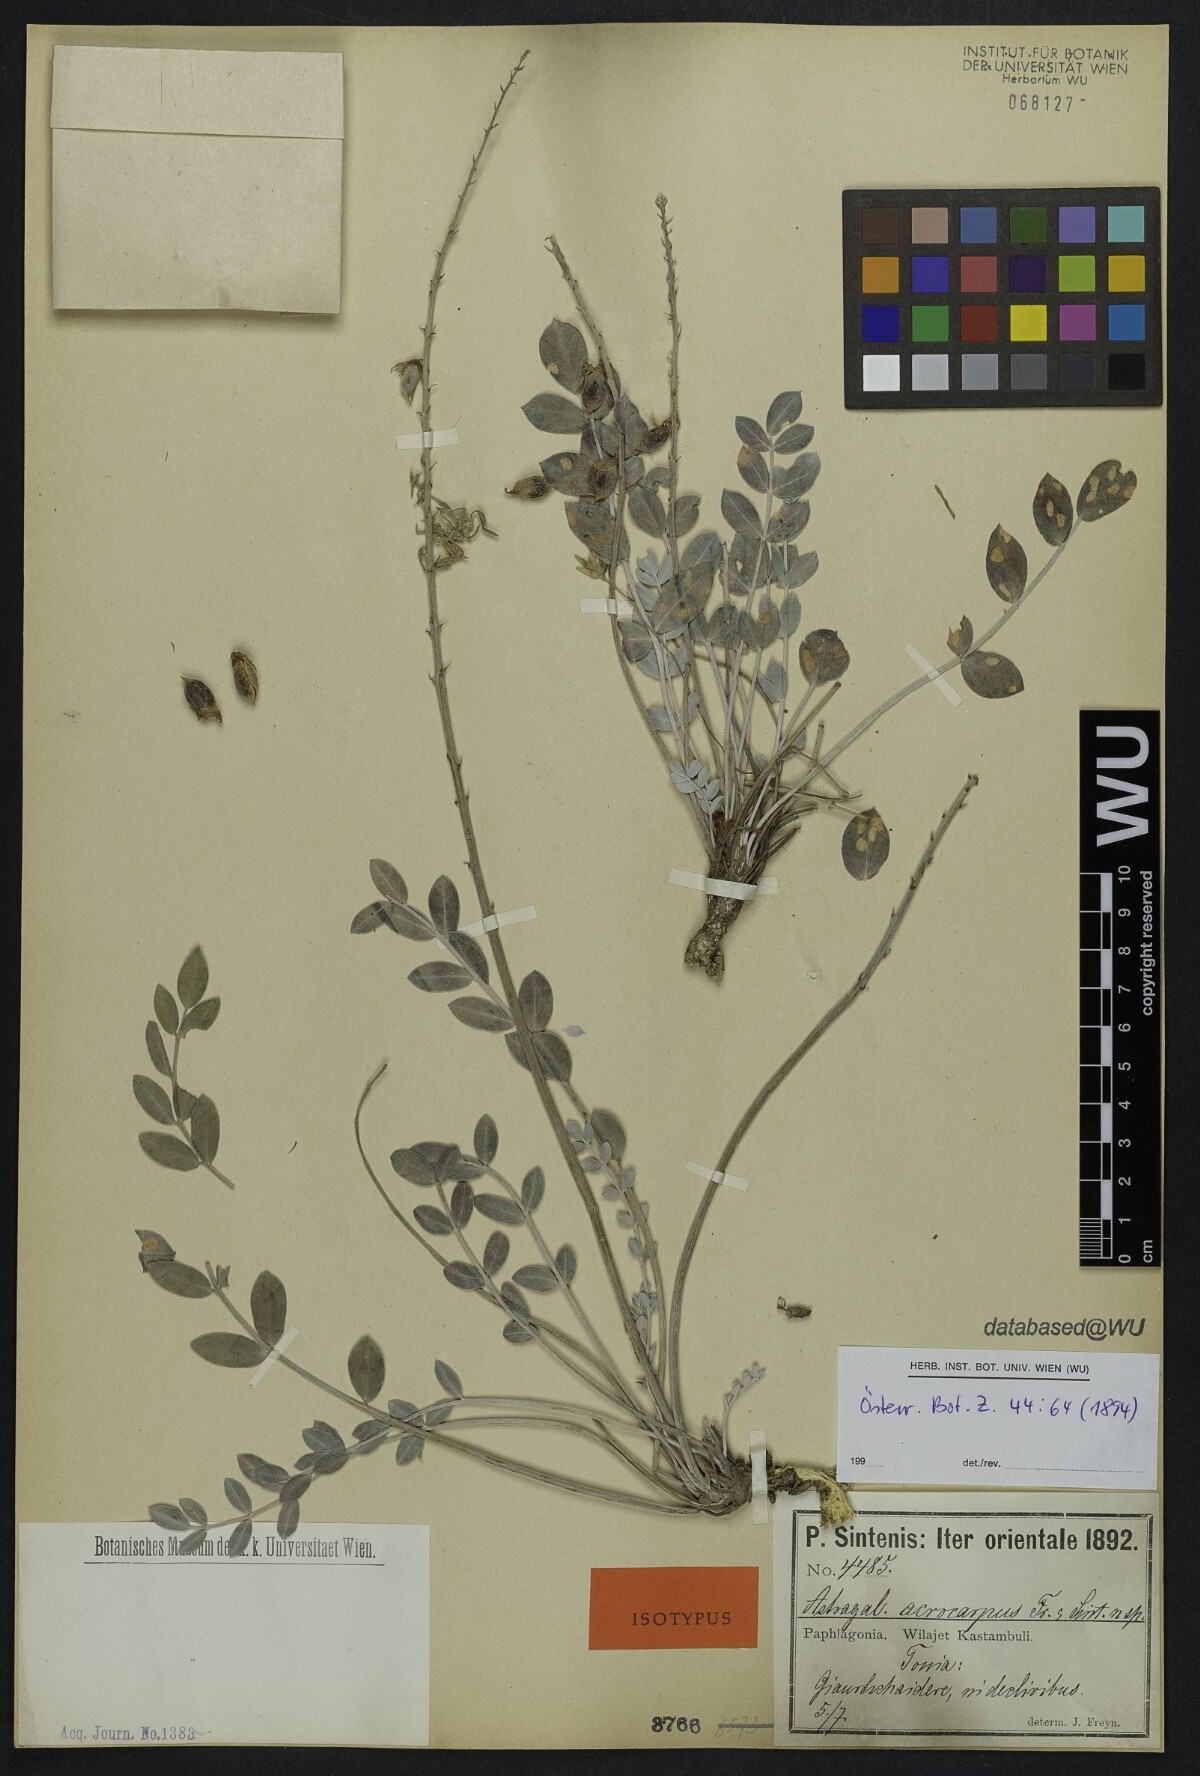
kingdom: Plantae
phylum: Tracheophyta
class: Magnoliopsida
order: Fabales
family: Fabaceae
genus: Astragalus
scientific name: Astragalus elongatus
